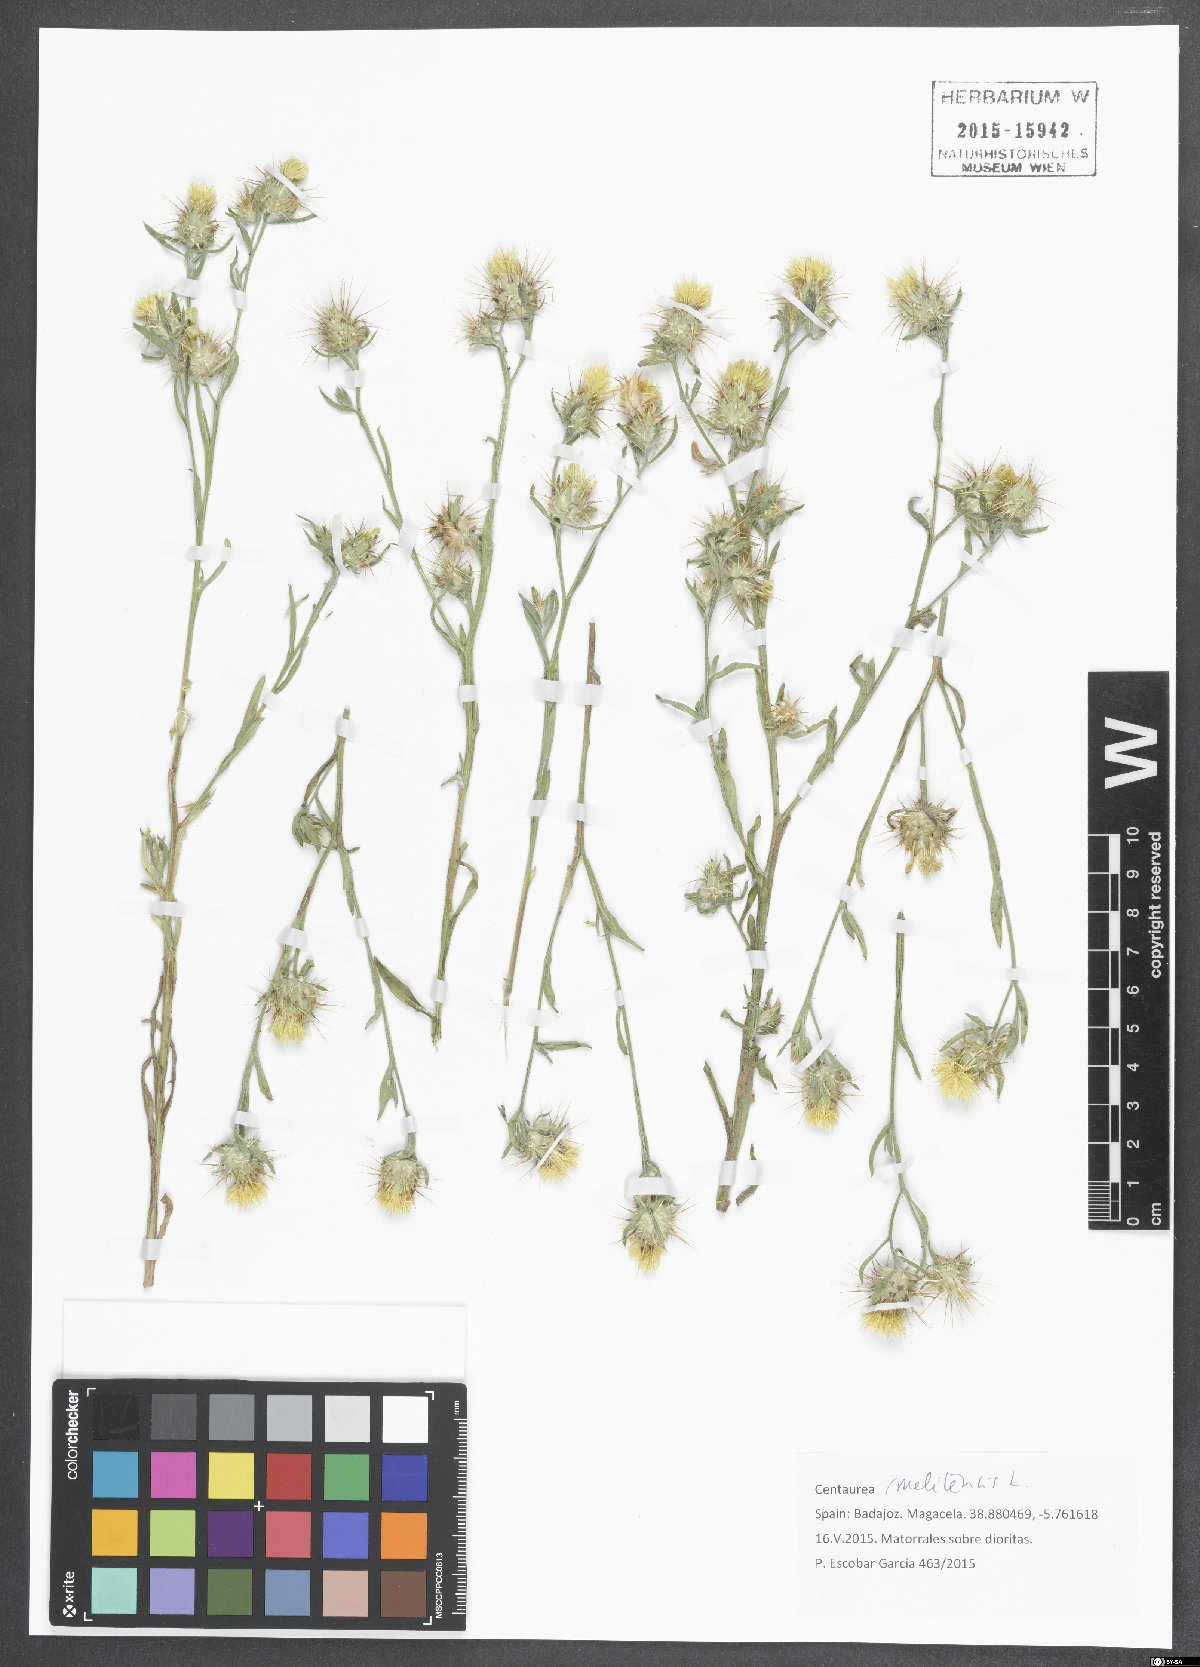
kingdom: Plantae
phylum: Tracheophyta
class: Magnoliopsida
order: Asterales
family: Asteraceae
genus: Centaurea
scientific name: Centaurea melitensis
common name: Maltese star-thistle
